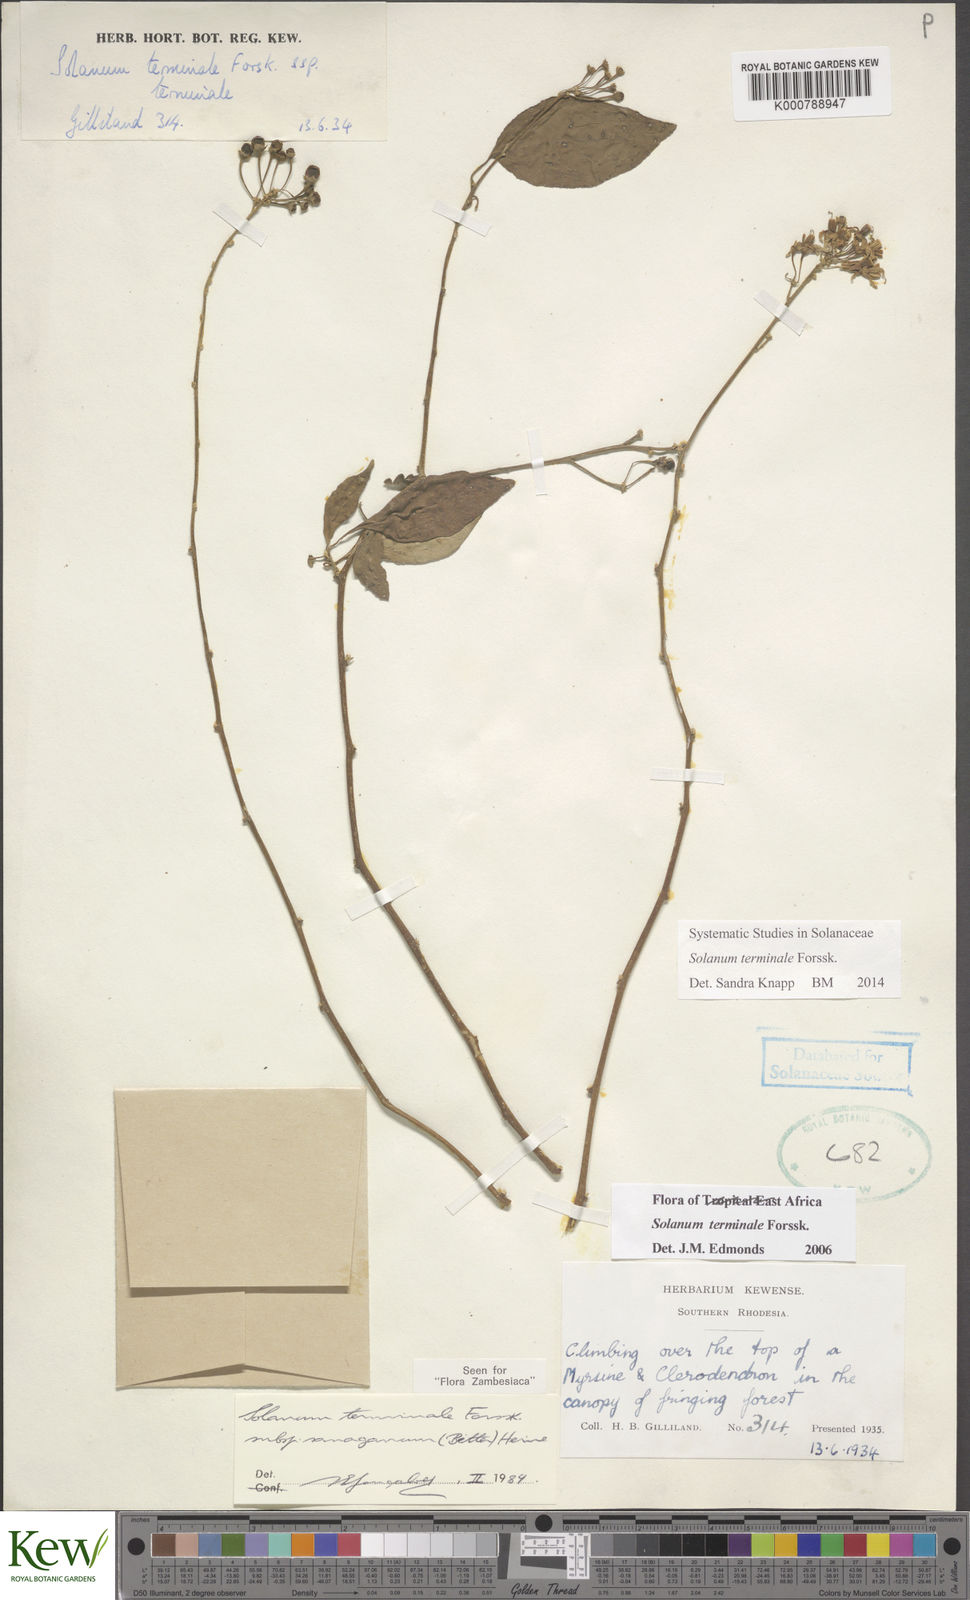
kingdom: Plantae
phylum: Tracheophyta
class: Magnoliopsida
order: Solanales
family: Solanaceae
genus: Solanum
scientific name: Solanum terminale
